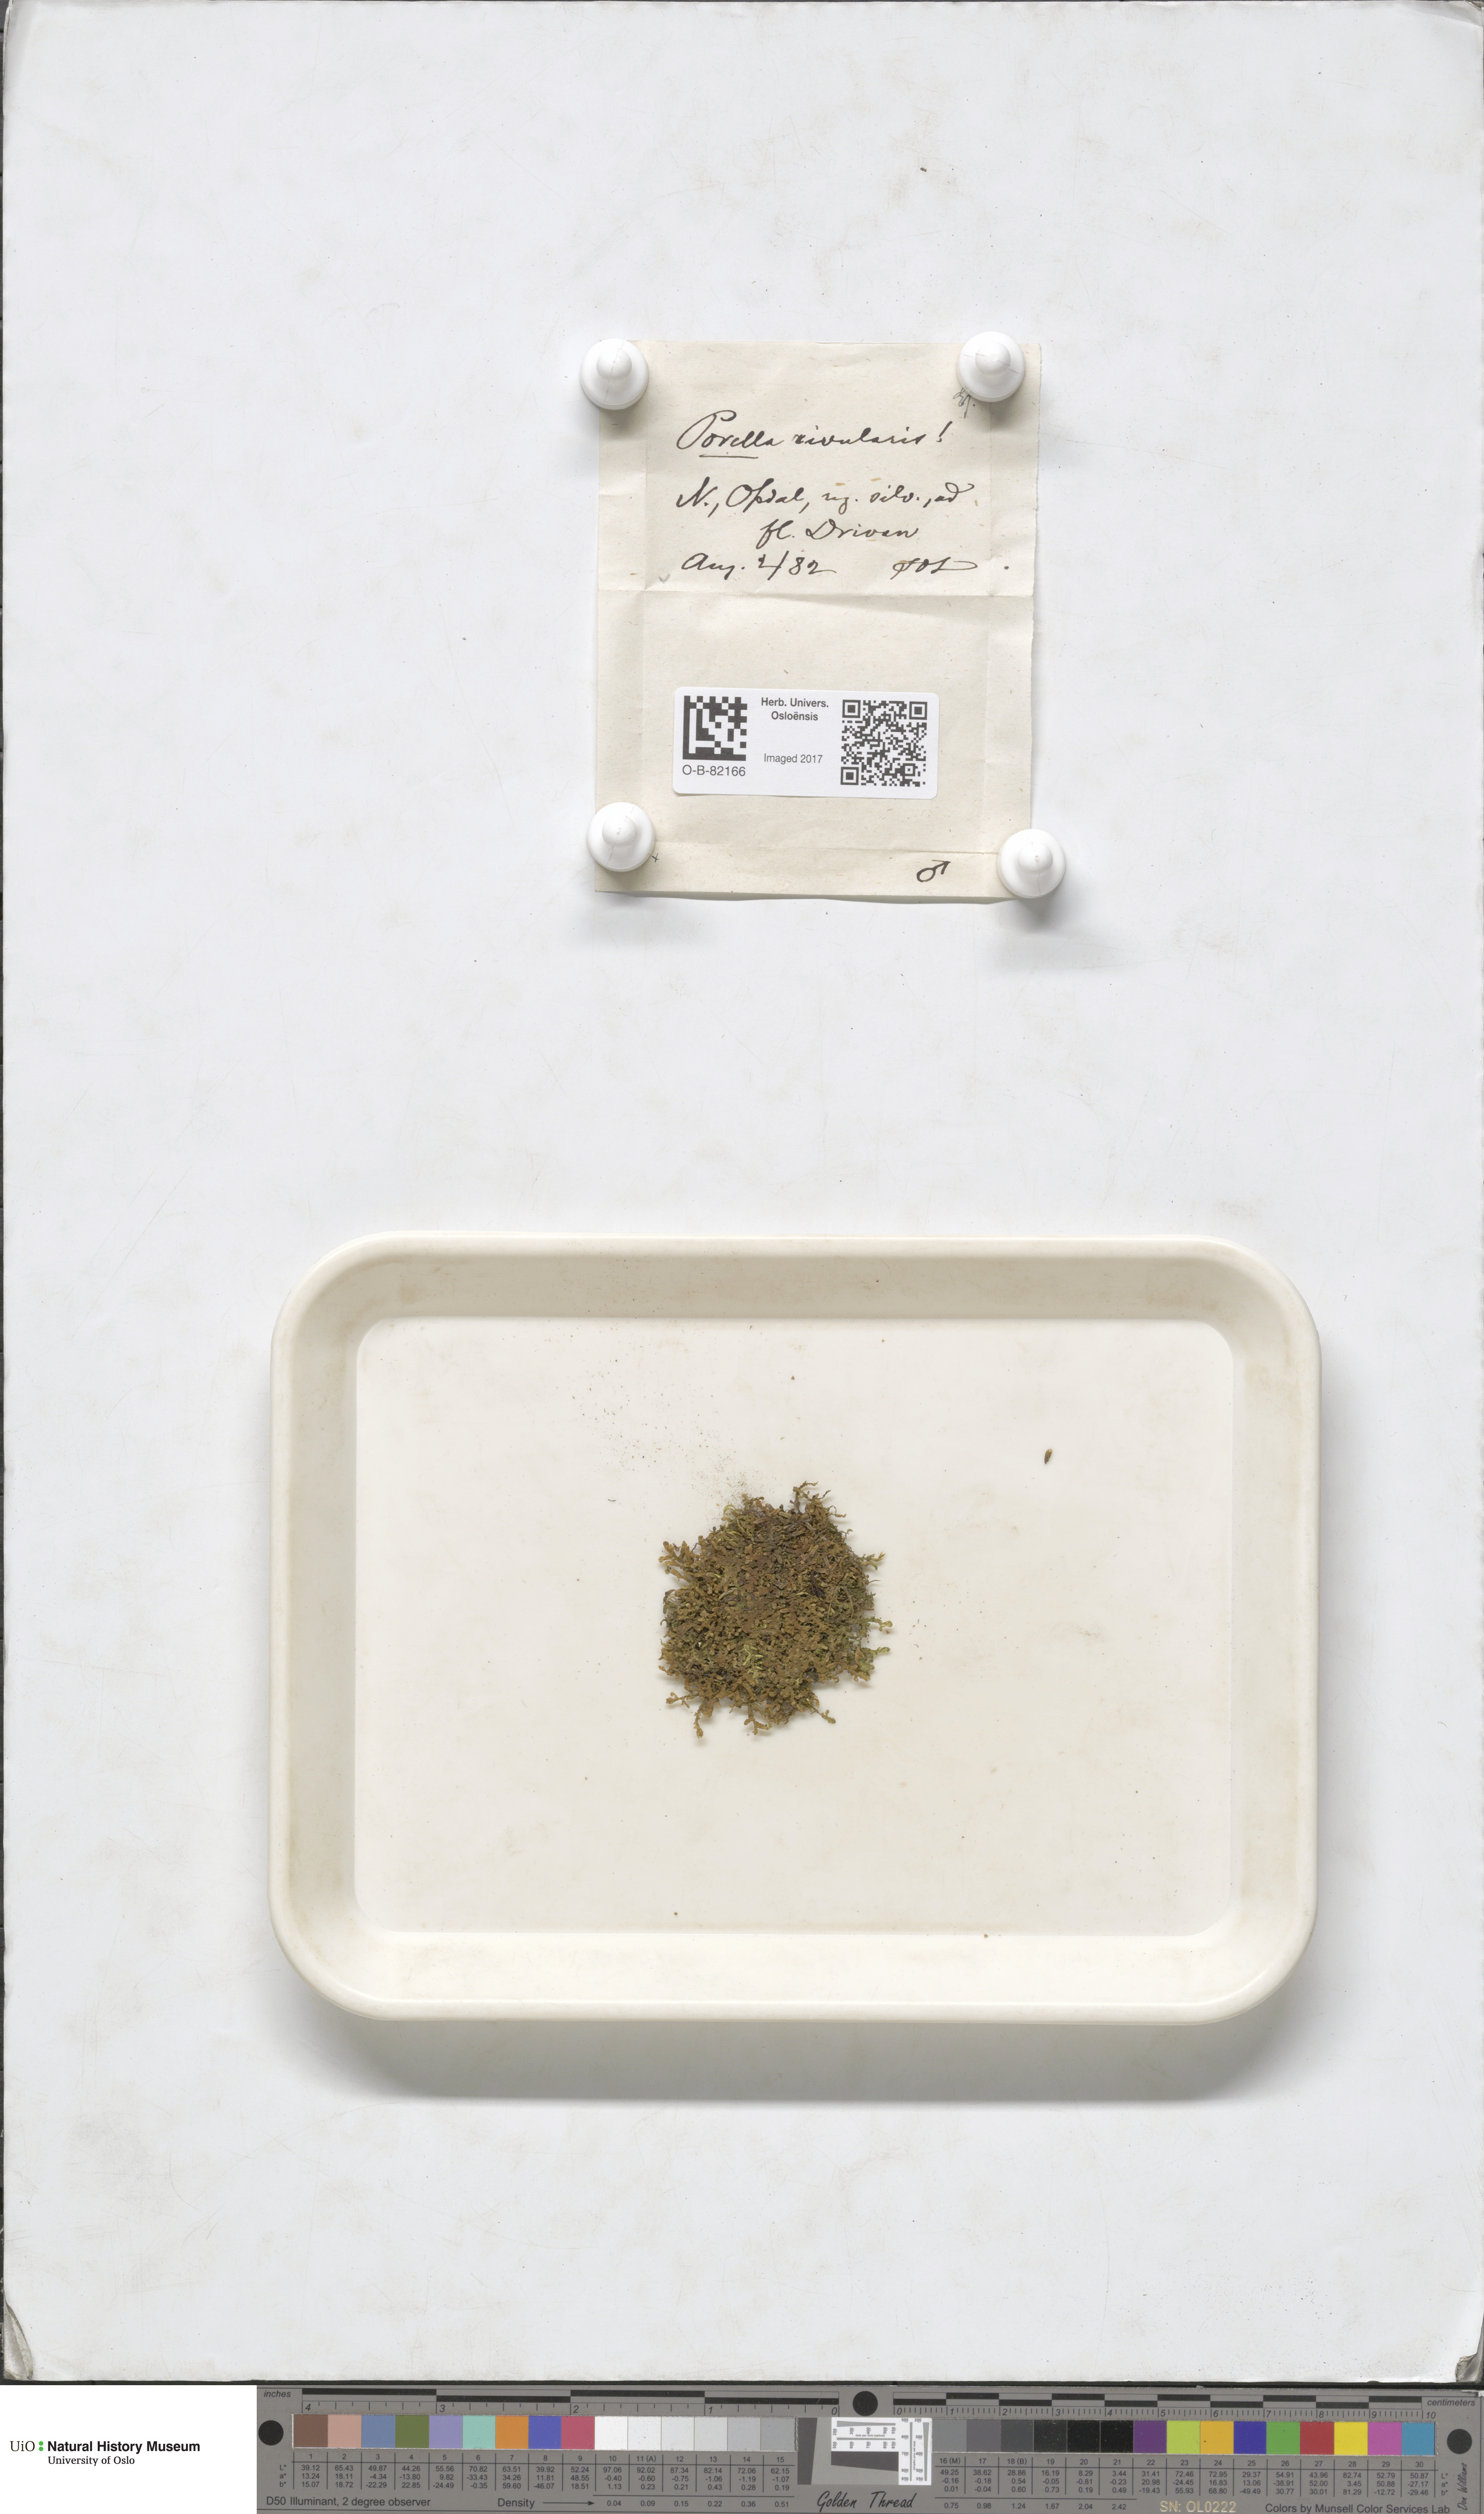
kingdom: Plantae
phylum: Marchantiophyta
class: Jungermanniopsida
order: Porellales
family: Porellaceae
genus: Porella
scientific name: Porella cordaeana
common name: Cliff scalewort
